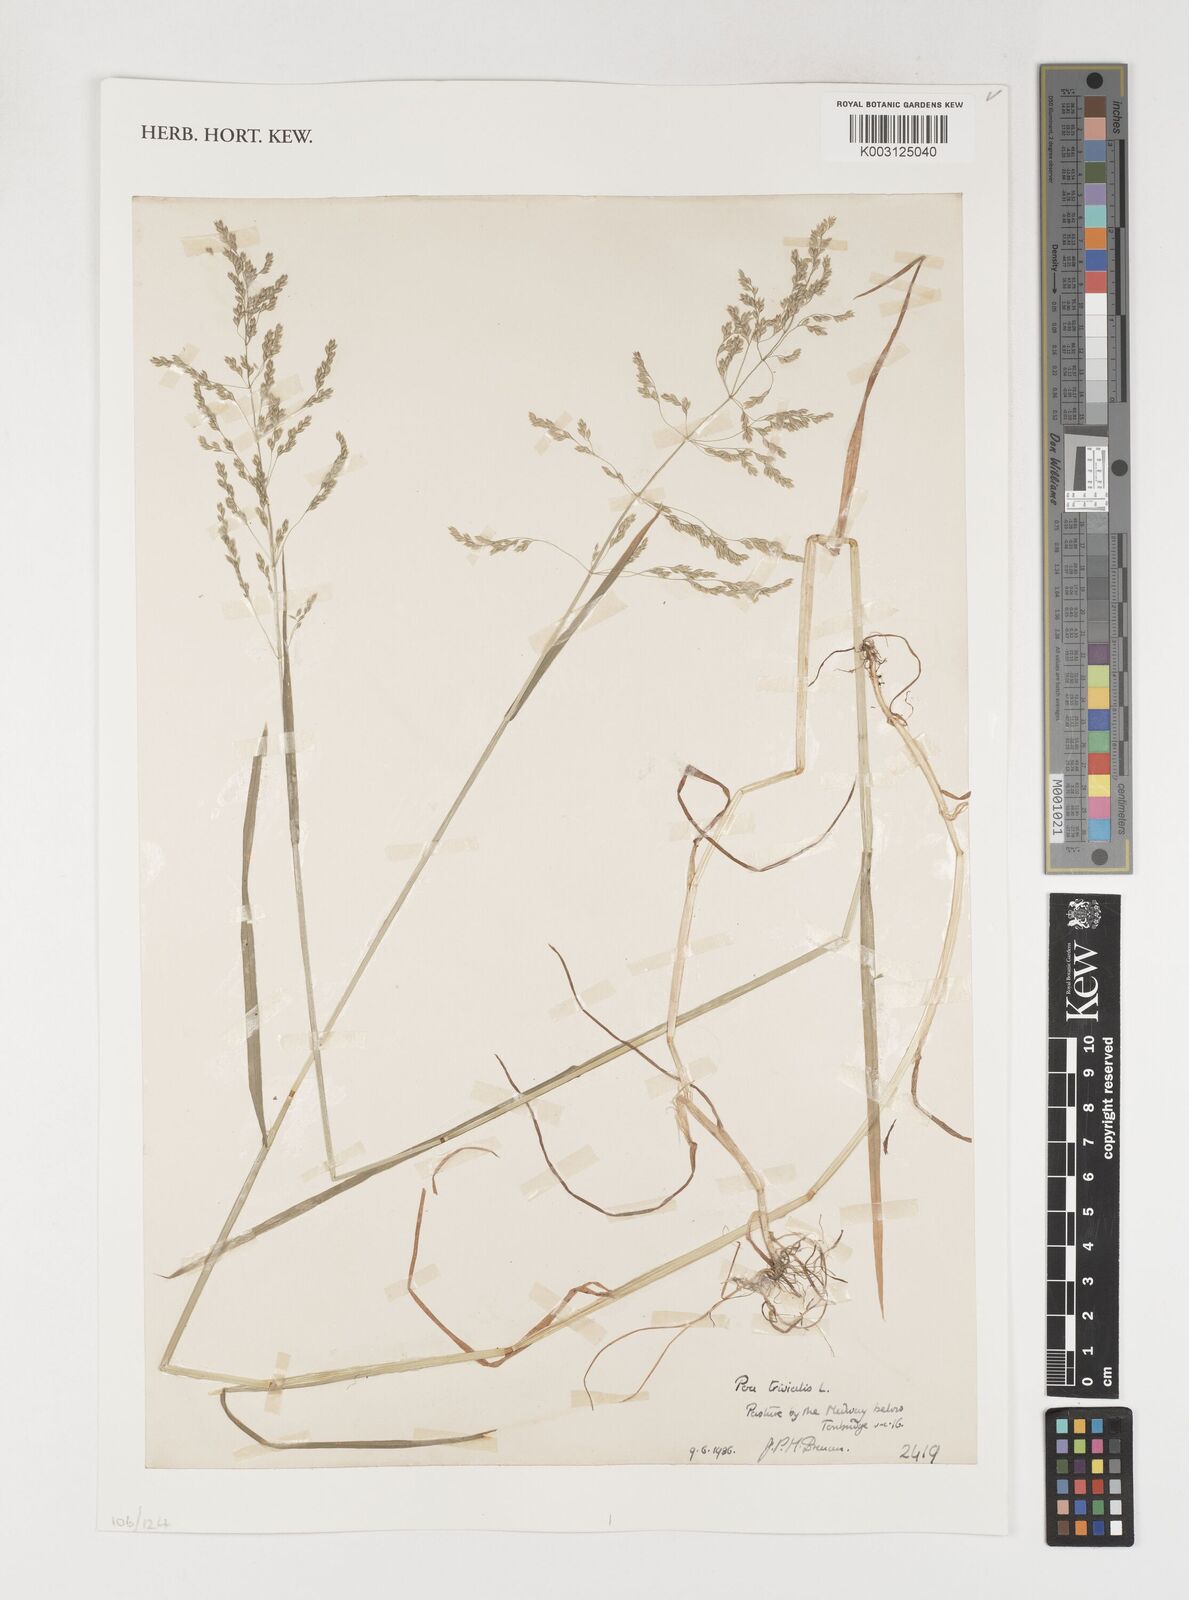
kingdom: Plantae
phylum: Tracheophyta
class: Liliopsida
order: Poales
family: Poaceae
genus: Poa
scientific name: Poa trivialis
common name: Rough bluegrass
